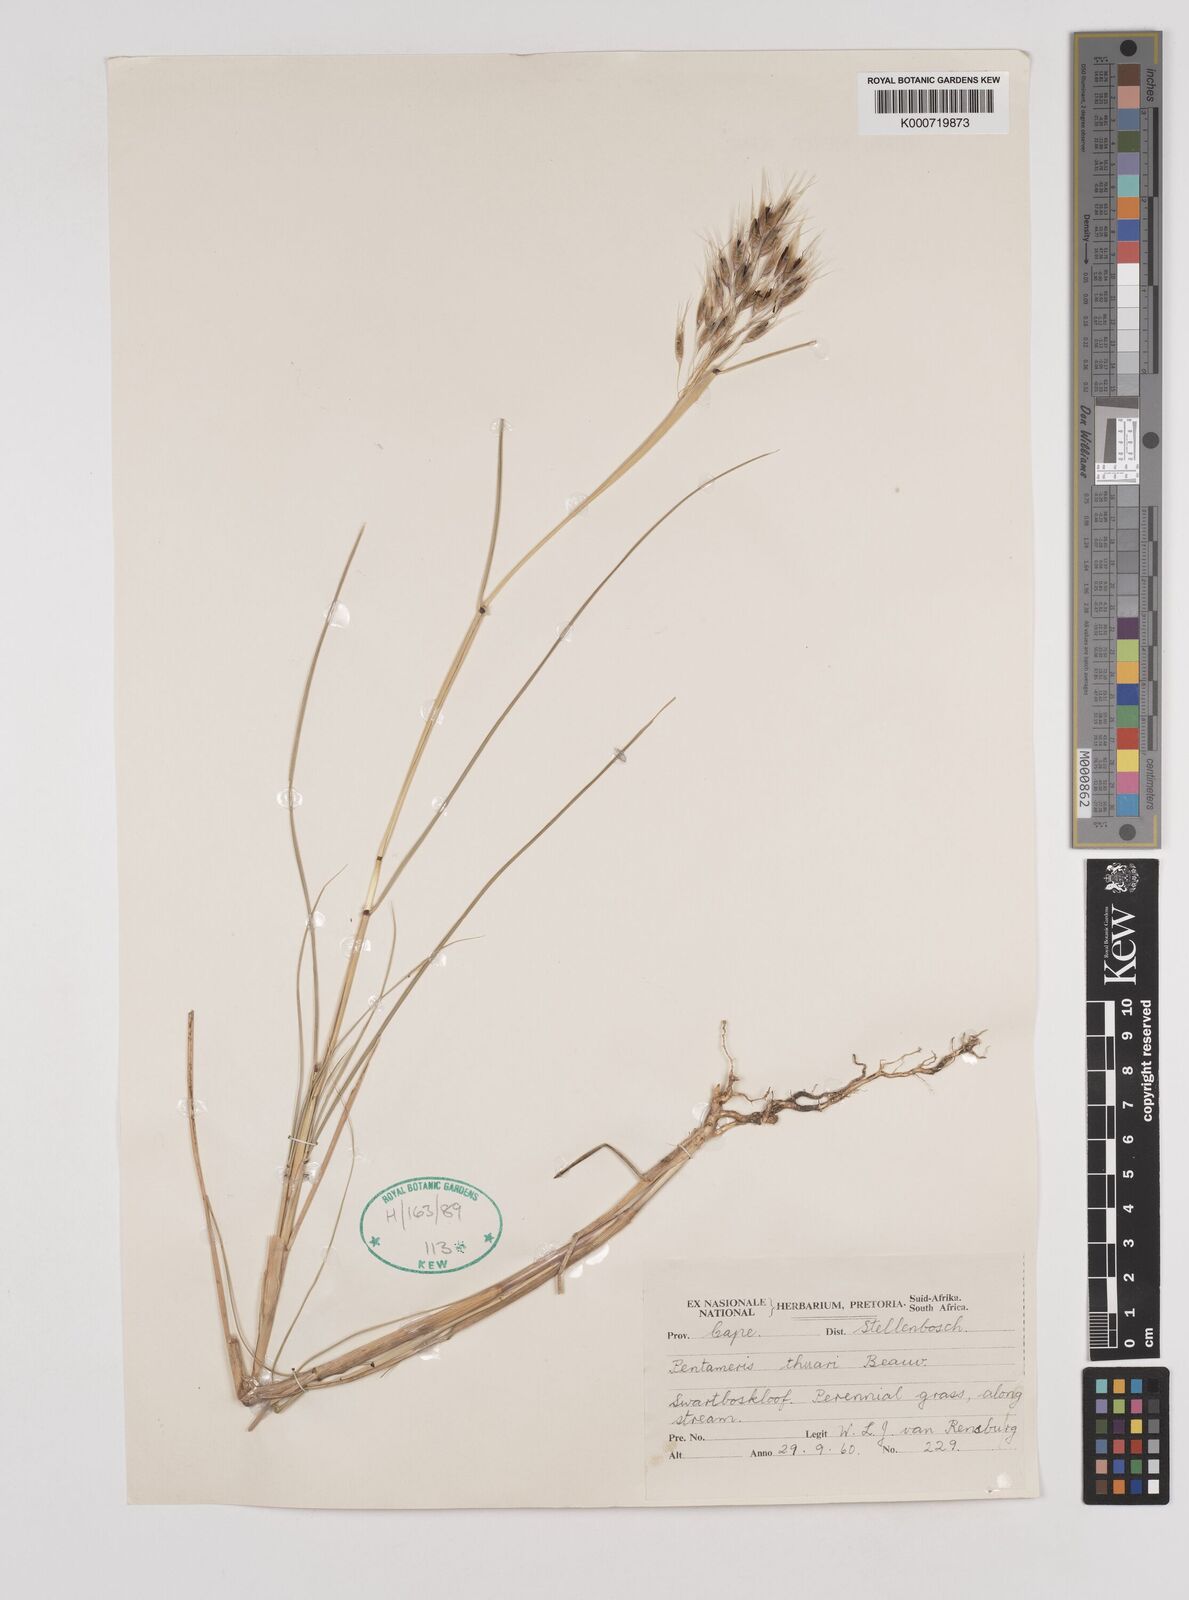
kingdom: Plantae
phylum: Tracheophyta
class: Liliopsida
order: Poales
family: Poaceae
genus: Pentameris
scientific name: Pentameris thuarii
